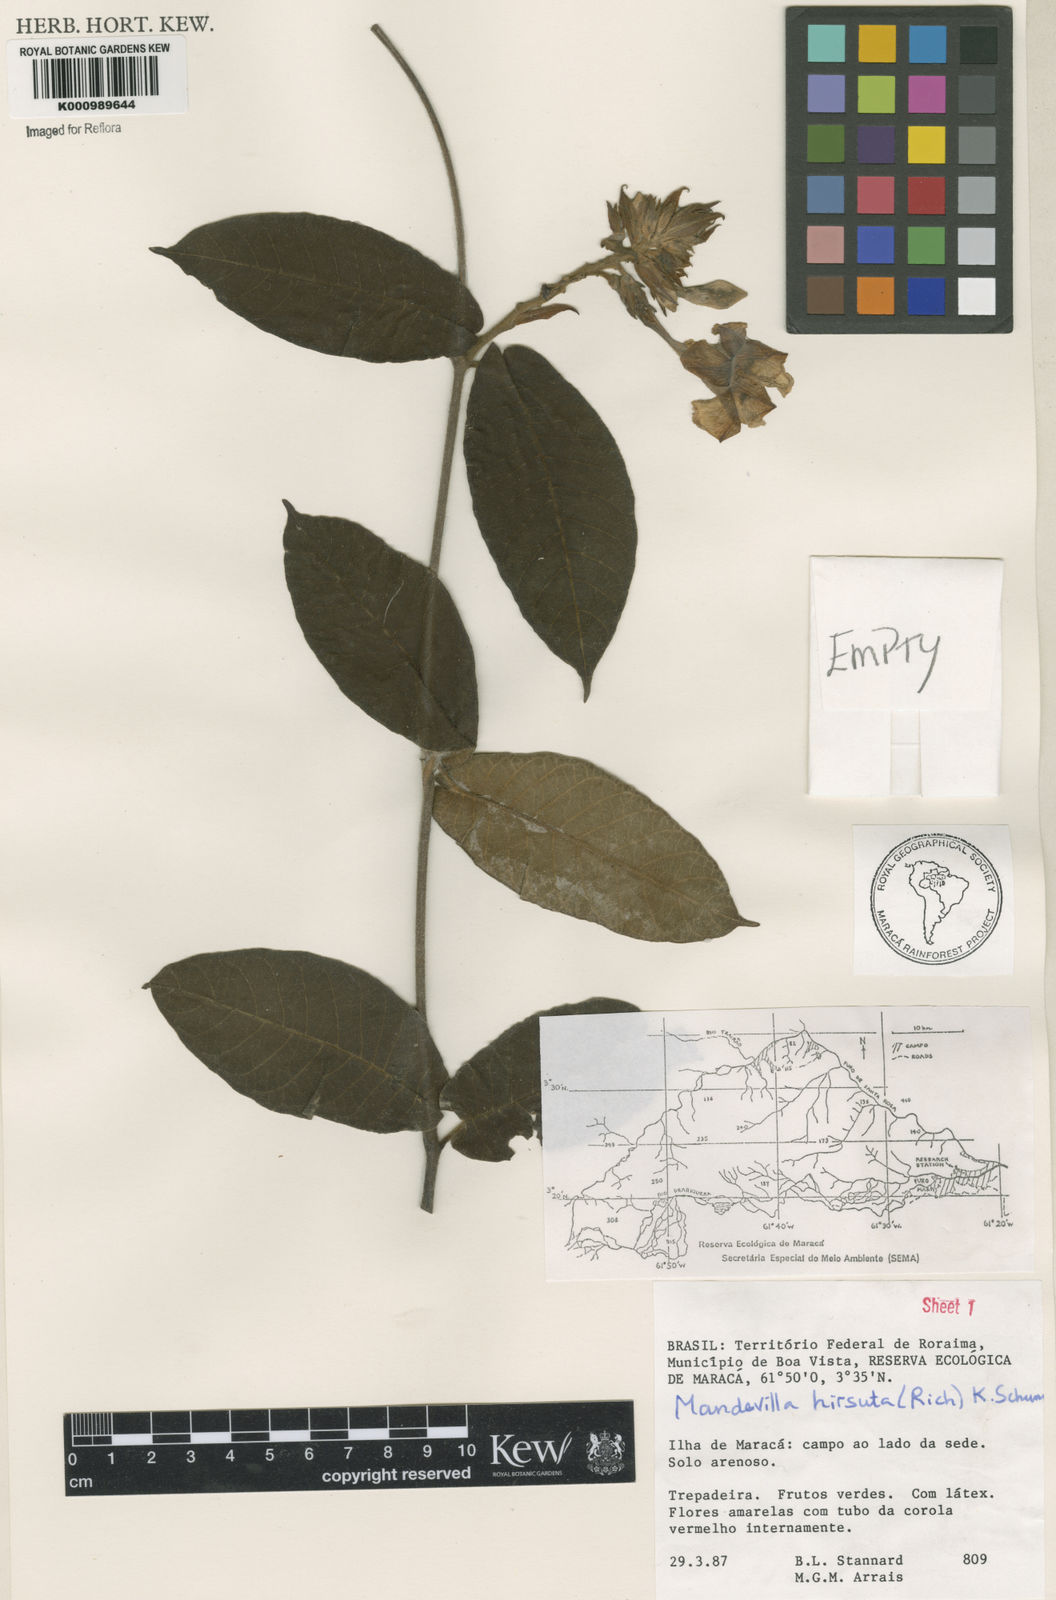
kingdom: Plantae
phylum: Tracheophyta
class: Magnoliopsida
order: Gentianales
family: Apocynaceae
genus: Mandevilla
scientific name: Mandevilla hirsuta
